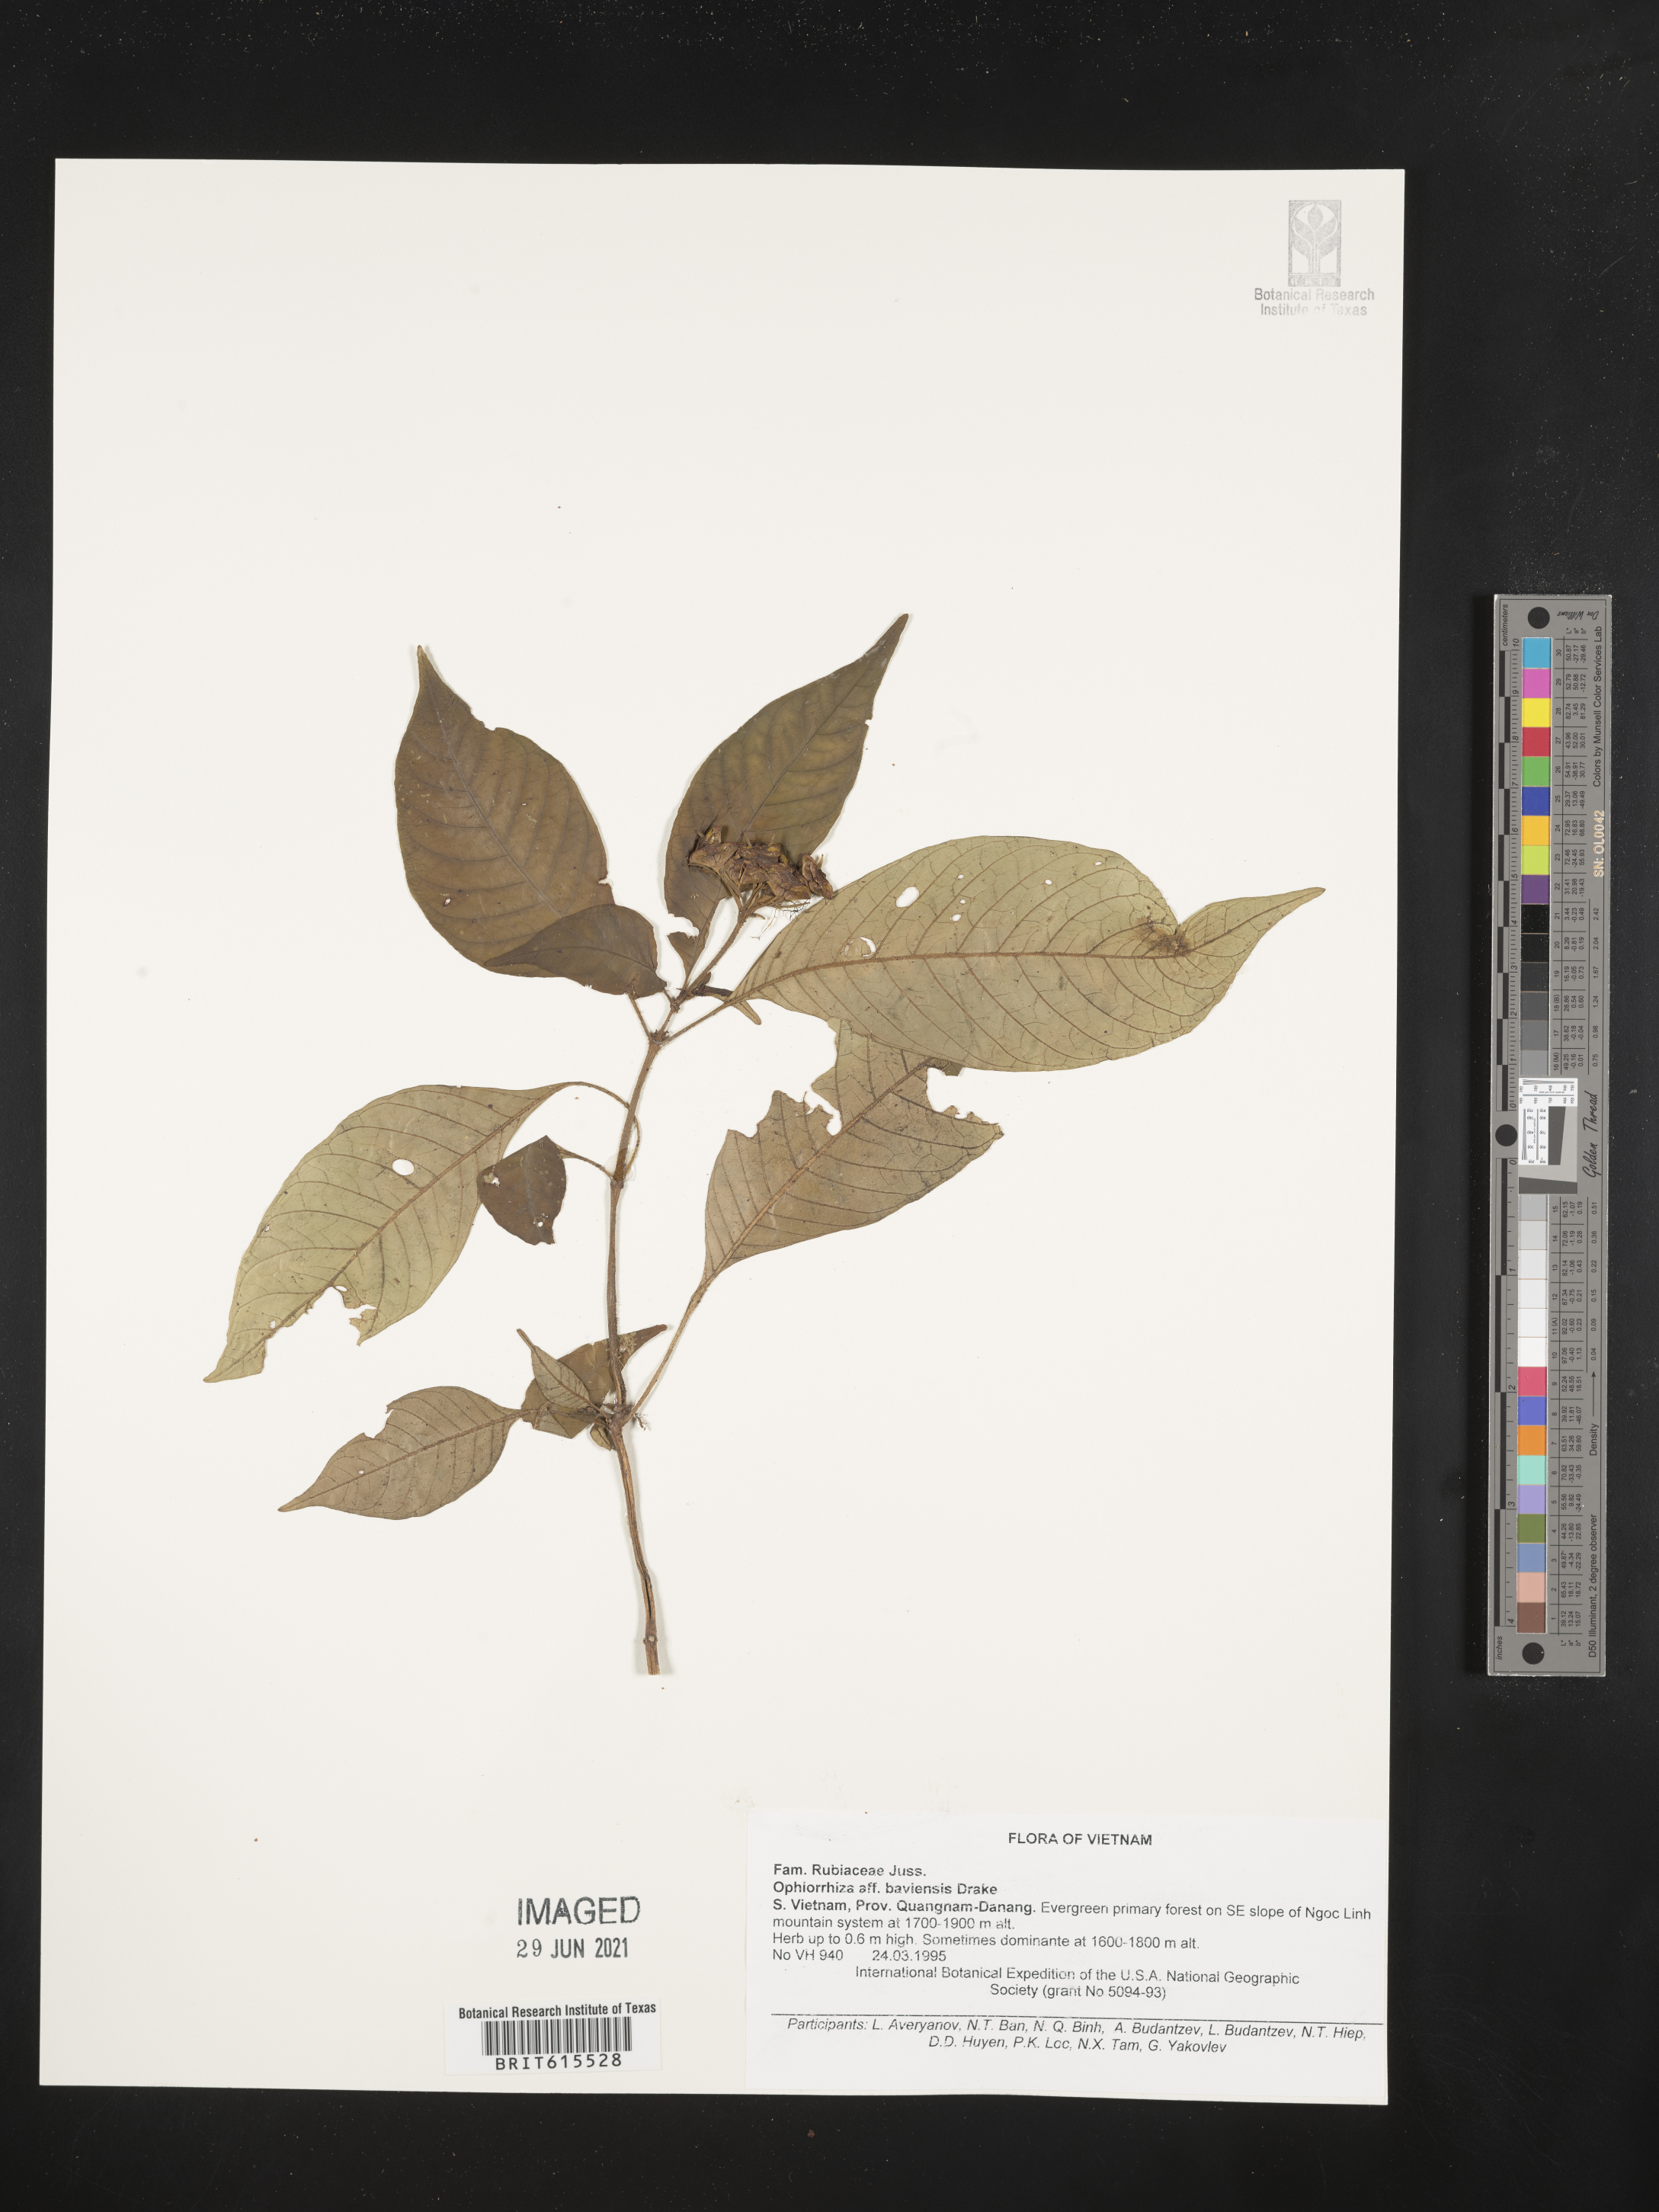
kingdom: Plantae
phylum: Tracheophyta
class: Magnoliopsida
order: Gentianales
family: Rubiaceae
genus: Ophiorrhiza
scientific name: Ophiorrhiza baviensis
